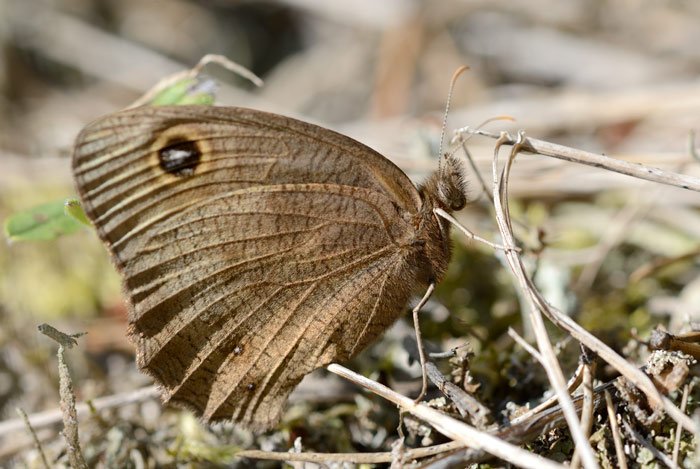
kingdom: Animalia
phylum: Arthropoda
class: Insecta
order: Lepidoptera
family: Nymphalidae
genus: Cercyonis
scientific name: Cercyonis pegala
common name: Common Wood-Nymph
